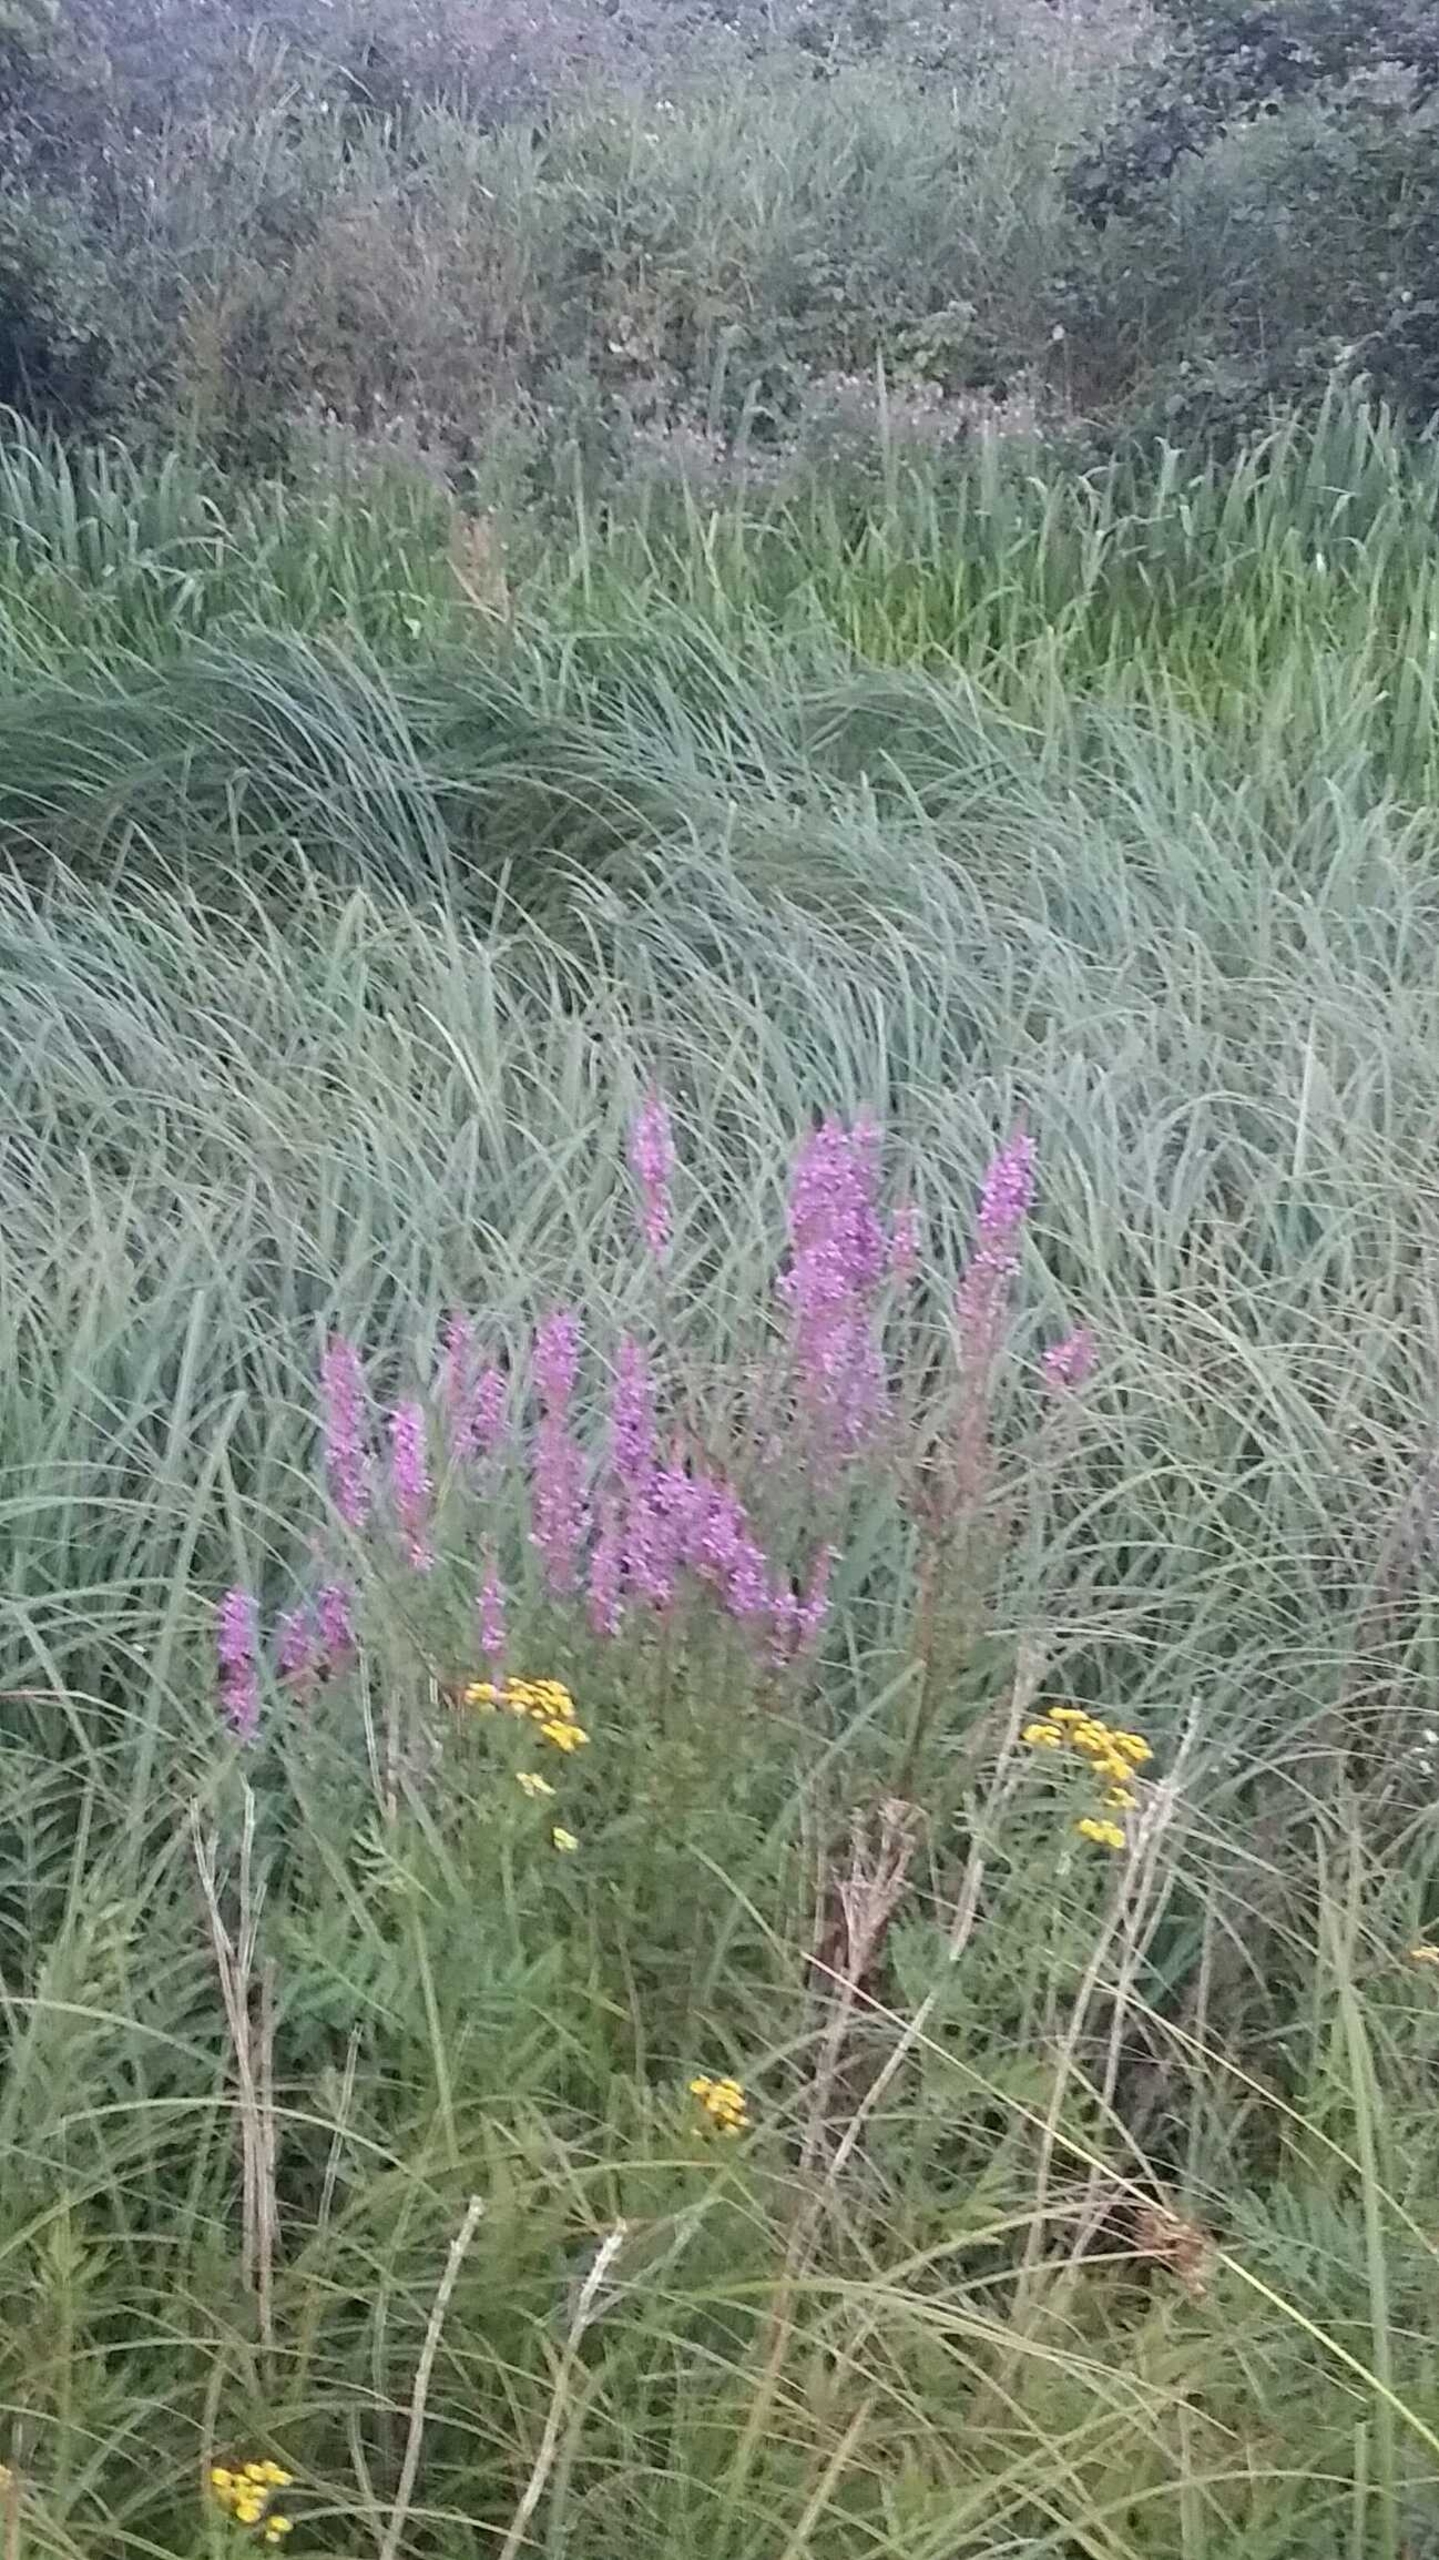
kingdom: Plantae
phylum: Tracheophyta
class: Magnoliopsida
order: Myrtales
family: Lythraceae
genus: Lythrum
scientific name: Lythrum salicaria
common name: Kattehale
